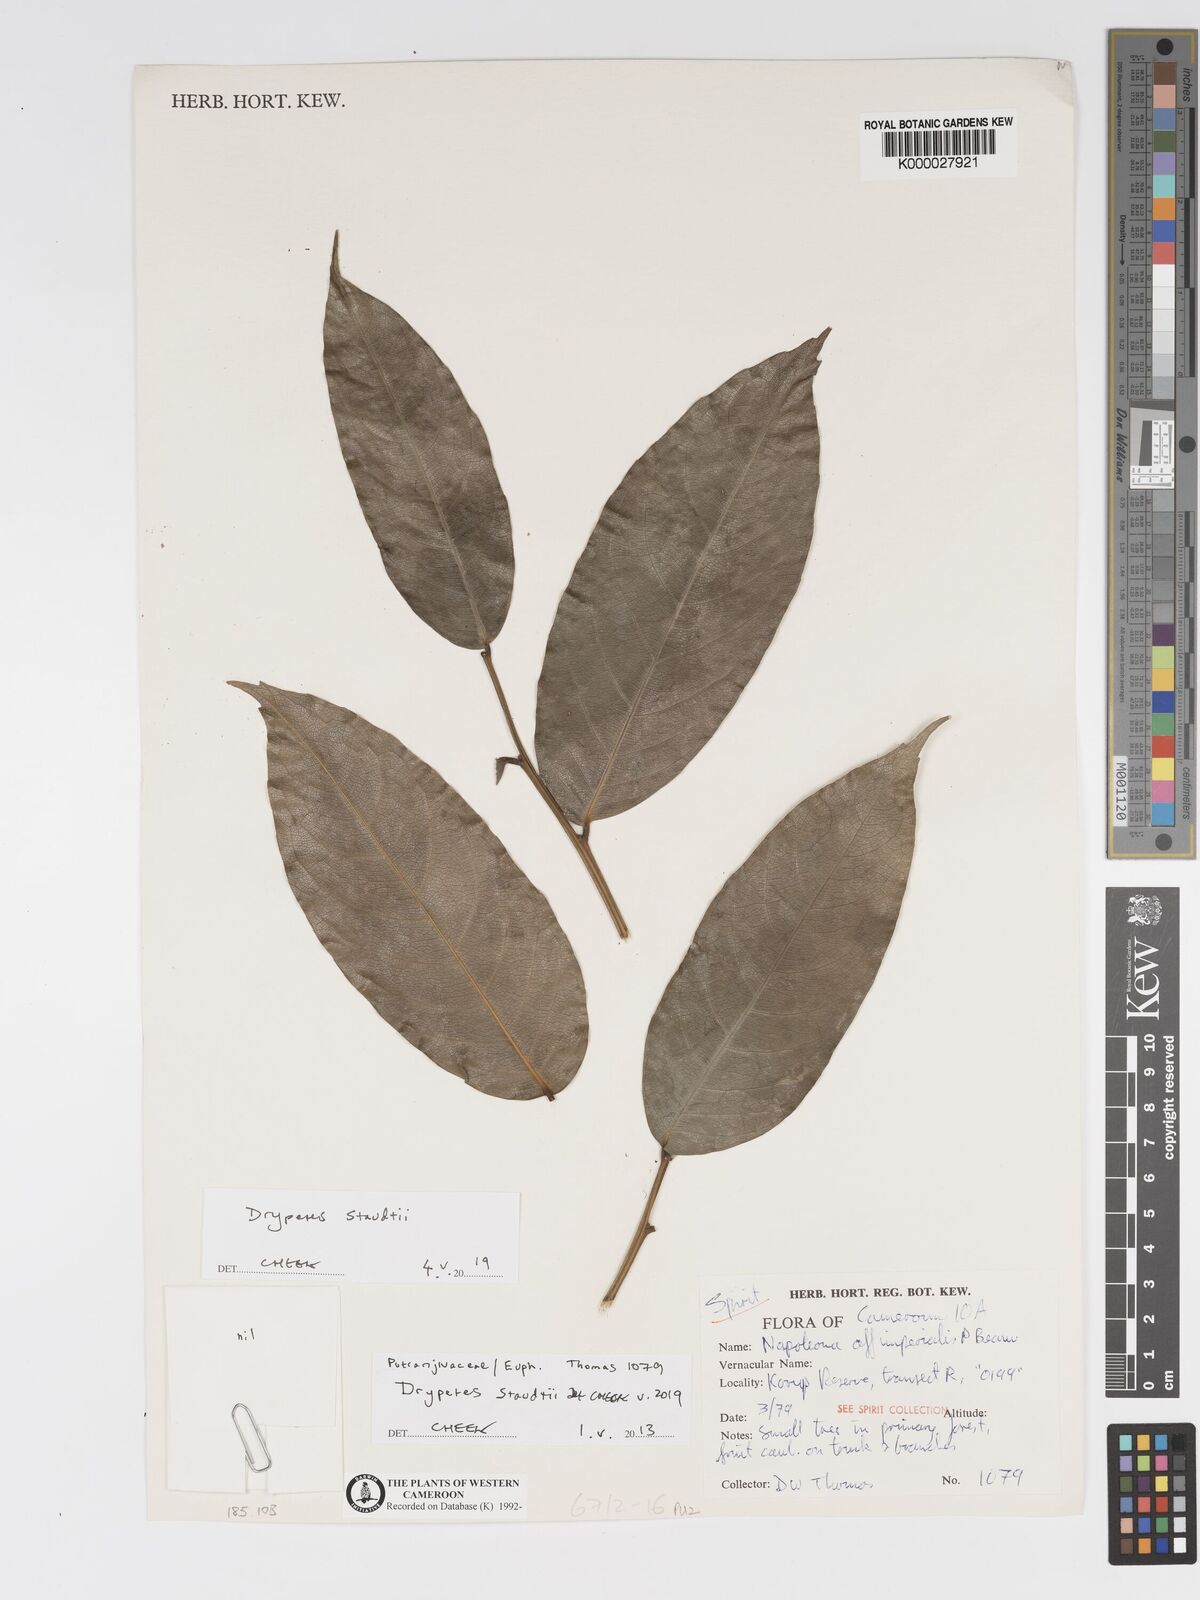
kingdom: Plantae
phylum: Tracheophyta
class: Magnoliopsida
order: Malpighiales
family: Putranjivaceae
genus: Drypetes
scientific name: Drypetes
